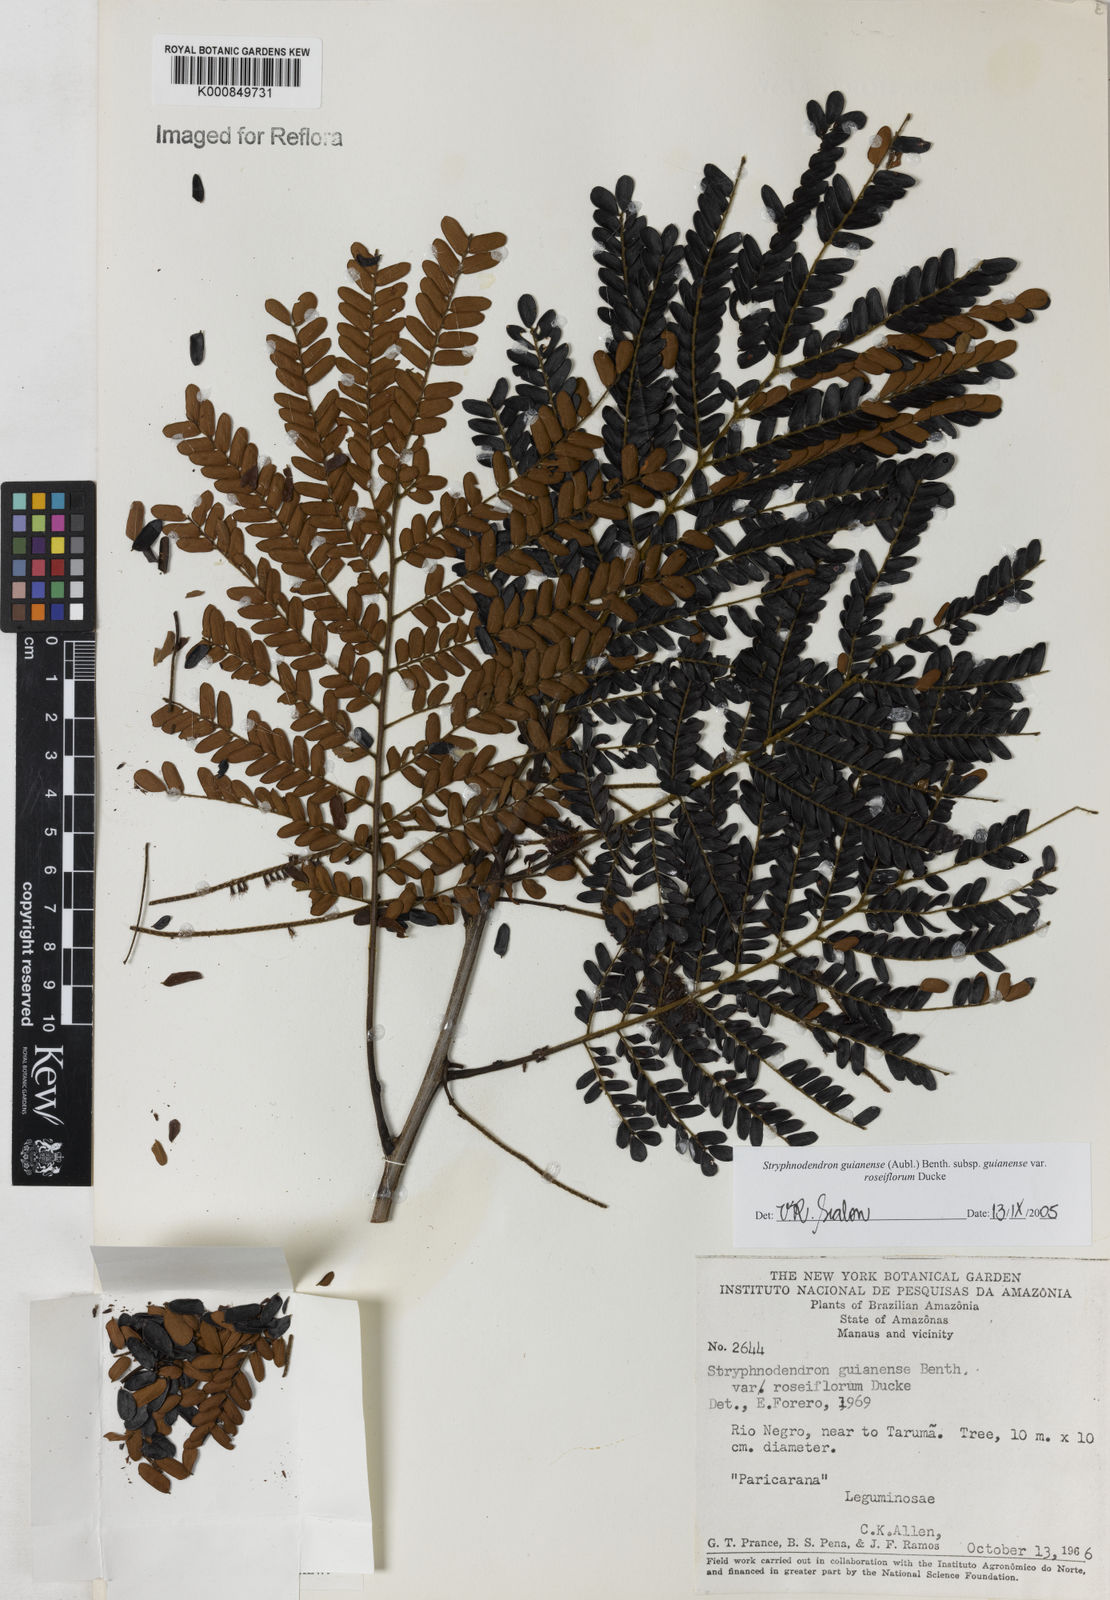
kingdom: Plantae
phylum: Tracheophyta
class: Magnoliopsida
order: Fabales
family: Fabaceae
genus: Stryphnodendron
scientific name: Stryphnodendron guianense
